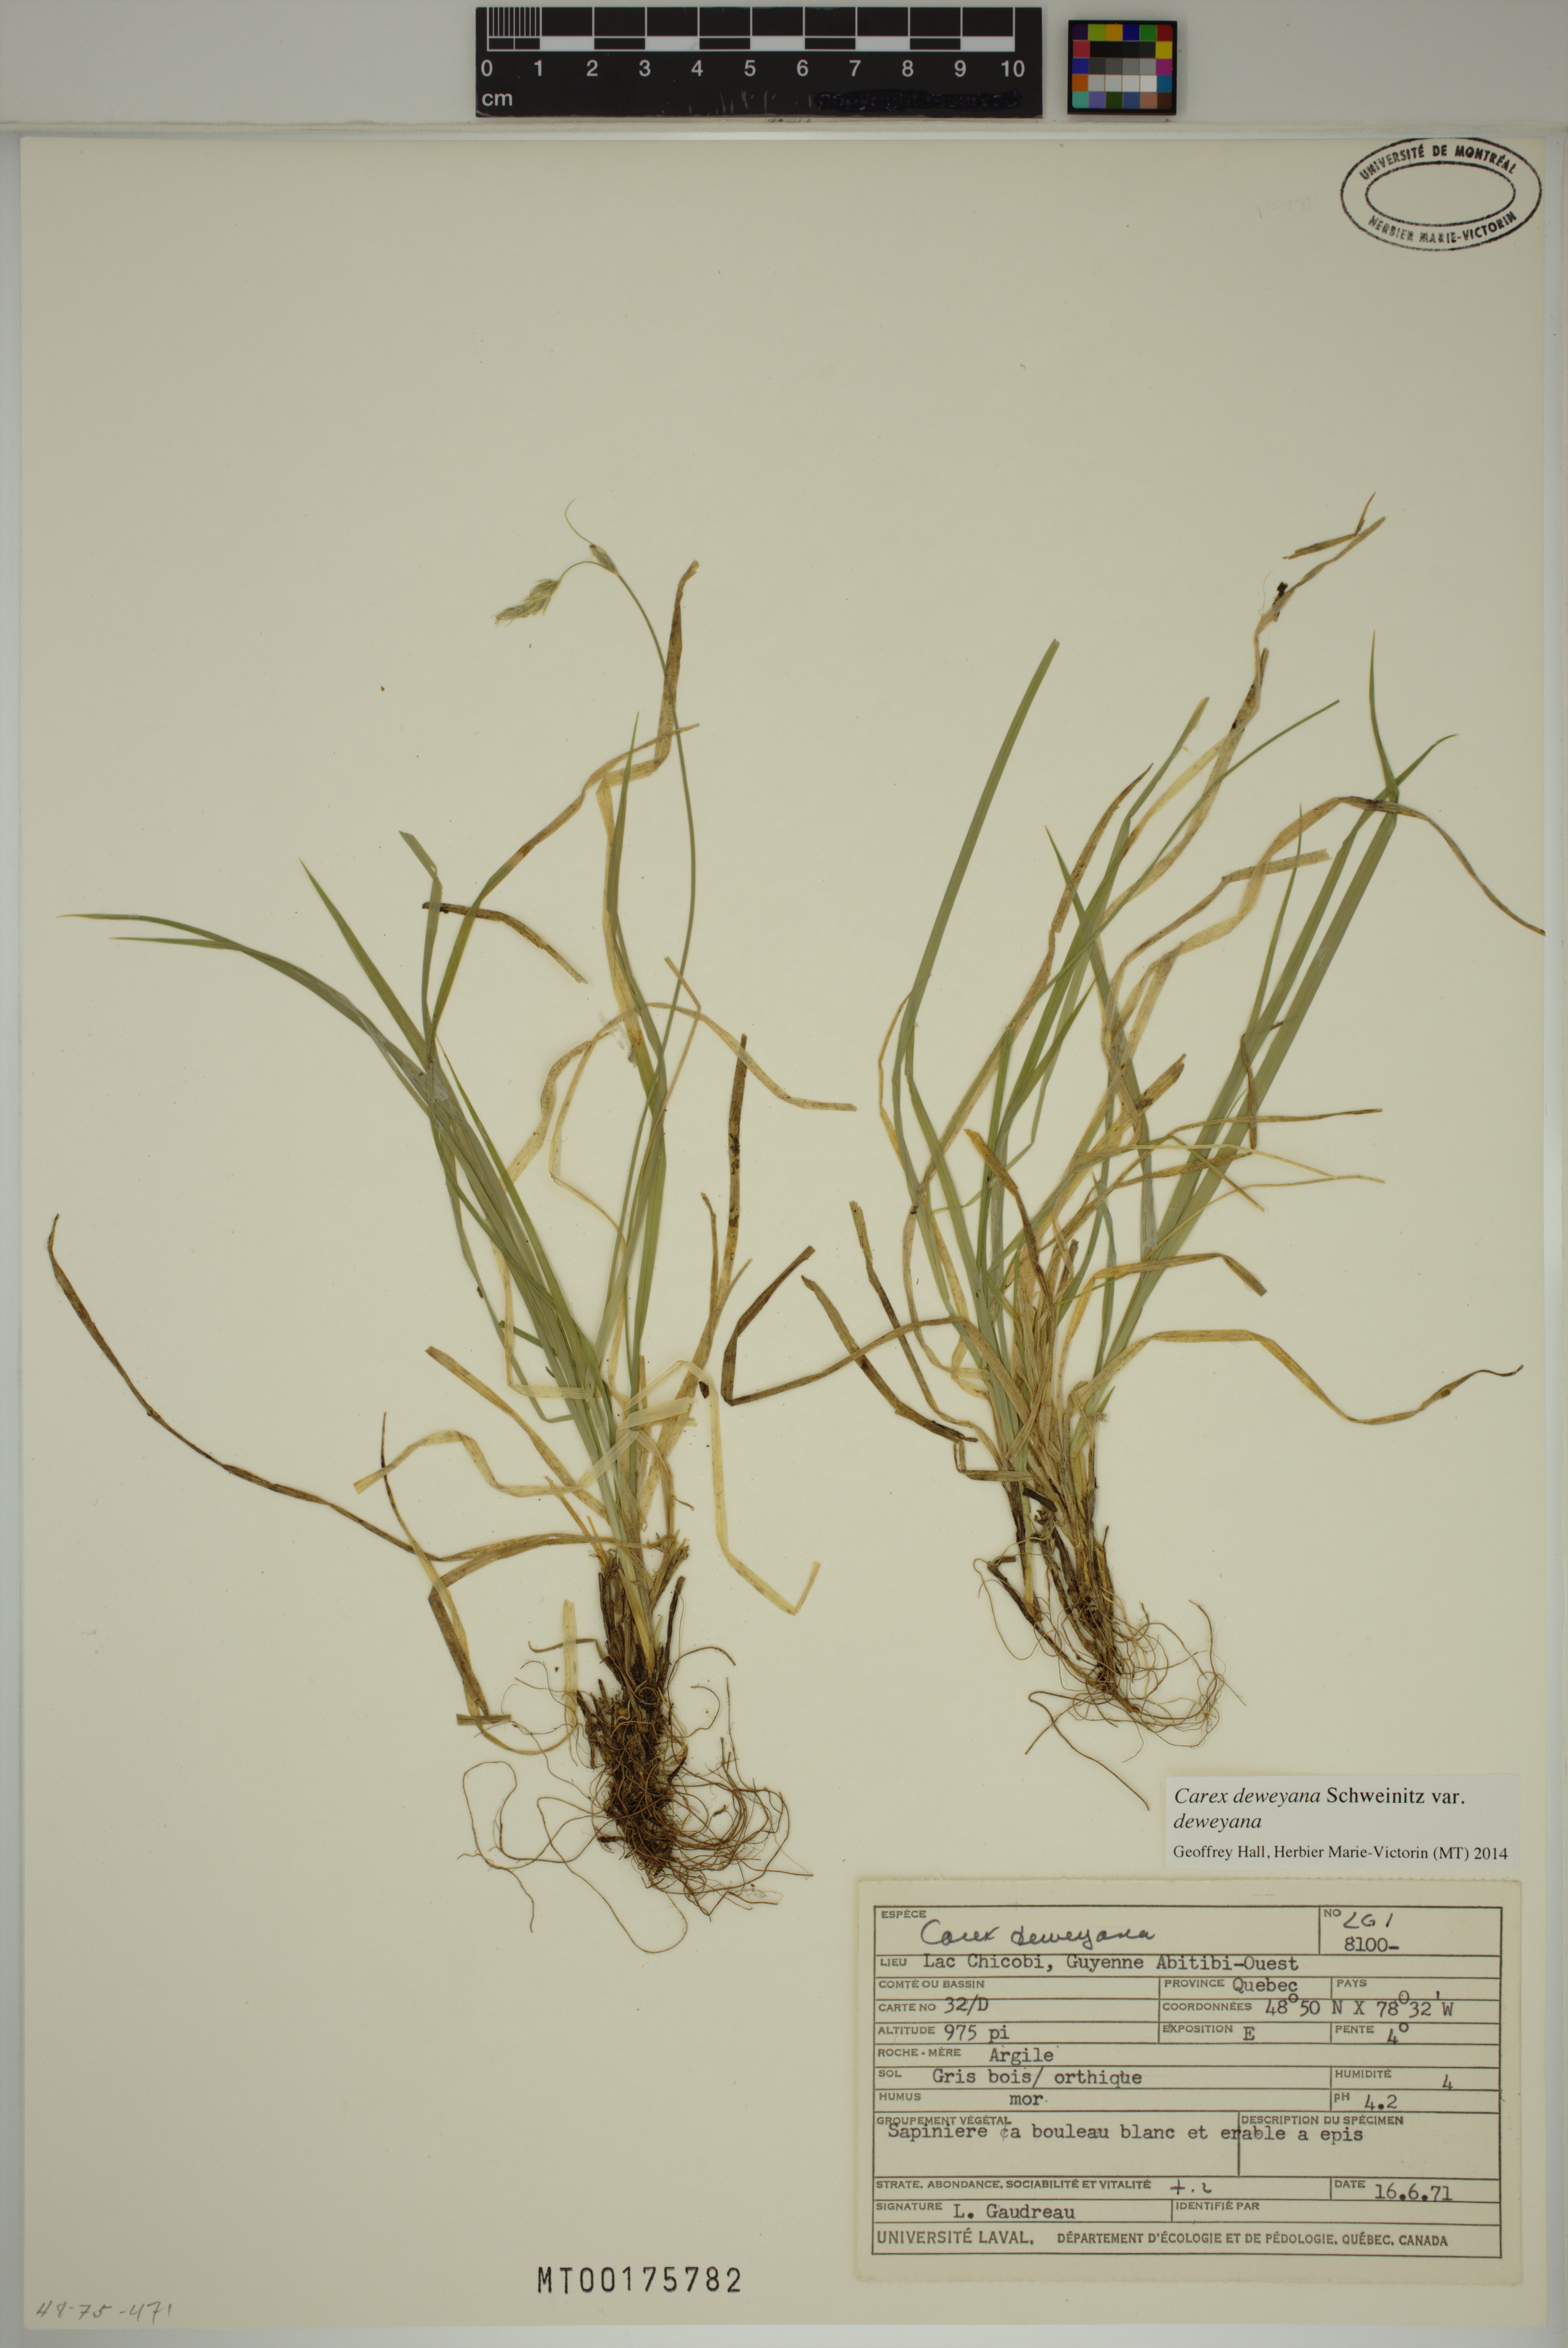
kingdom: Plantae
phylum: Tracheophyta
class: Liliopsida
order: Poales
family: Cyperaceae
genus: Carex
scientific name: Carex deweyana
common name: Dewey's sedge
